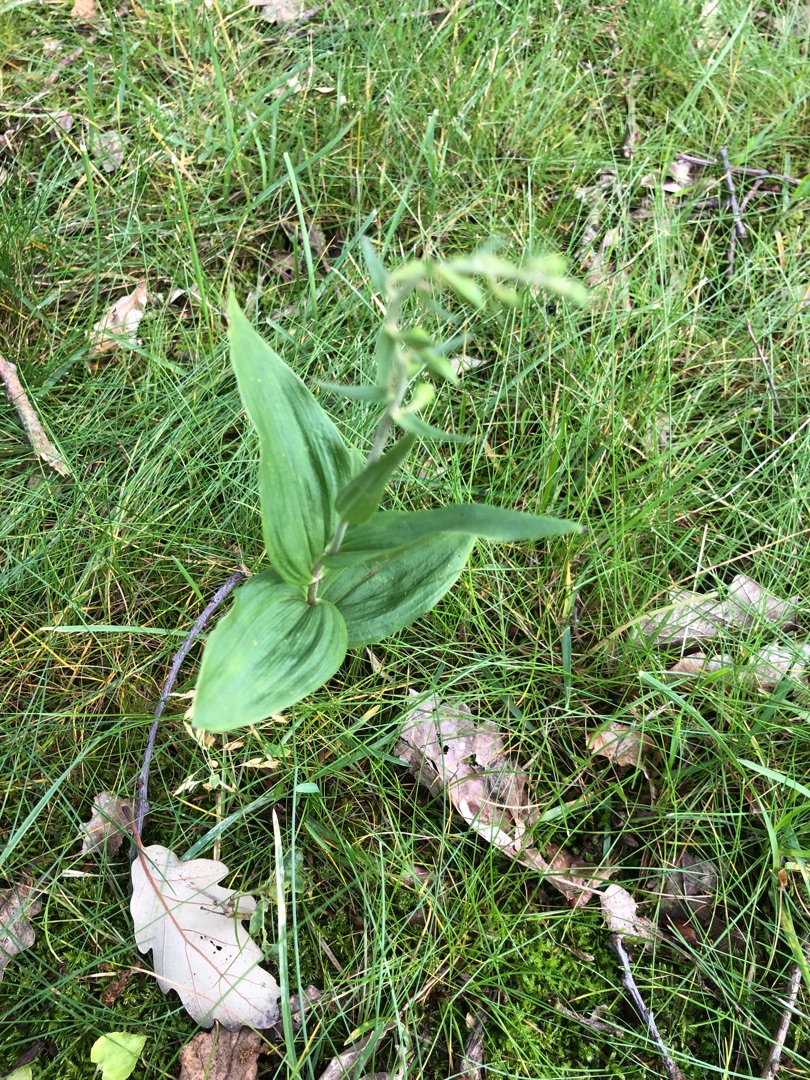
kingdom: Plantae
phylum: Tracheophyta
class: Liliopsida
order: Asparagales
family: Orchidaceae
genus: Epipactis
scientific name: Epipactis helleborine
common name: Skov-hullæbe
